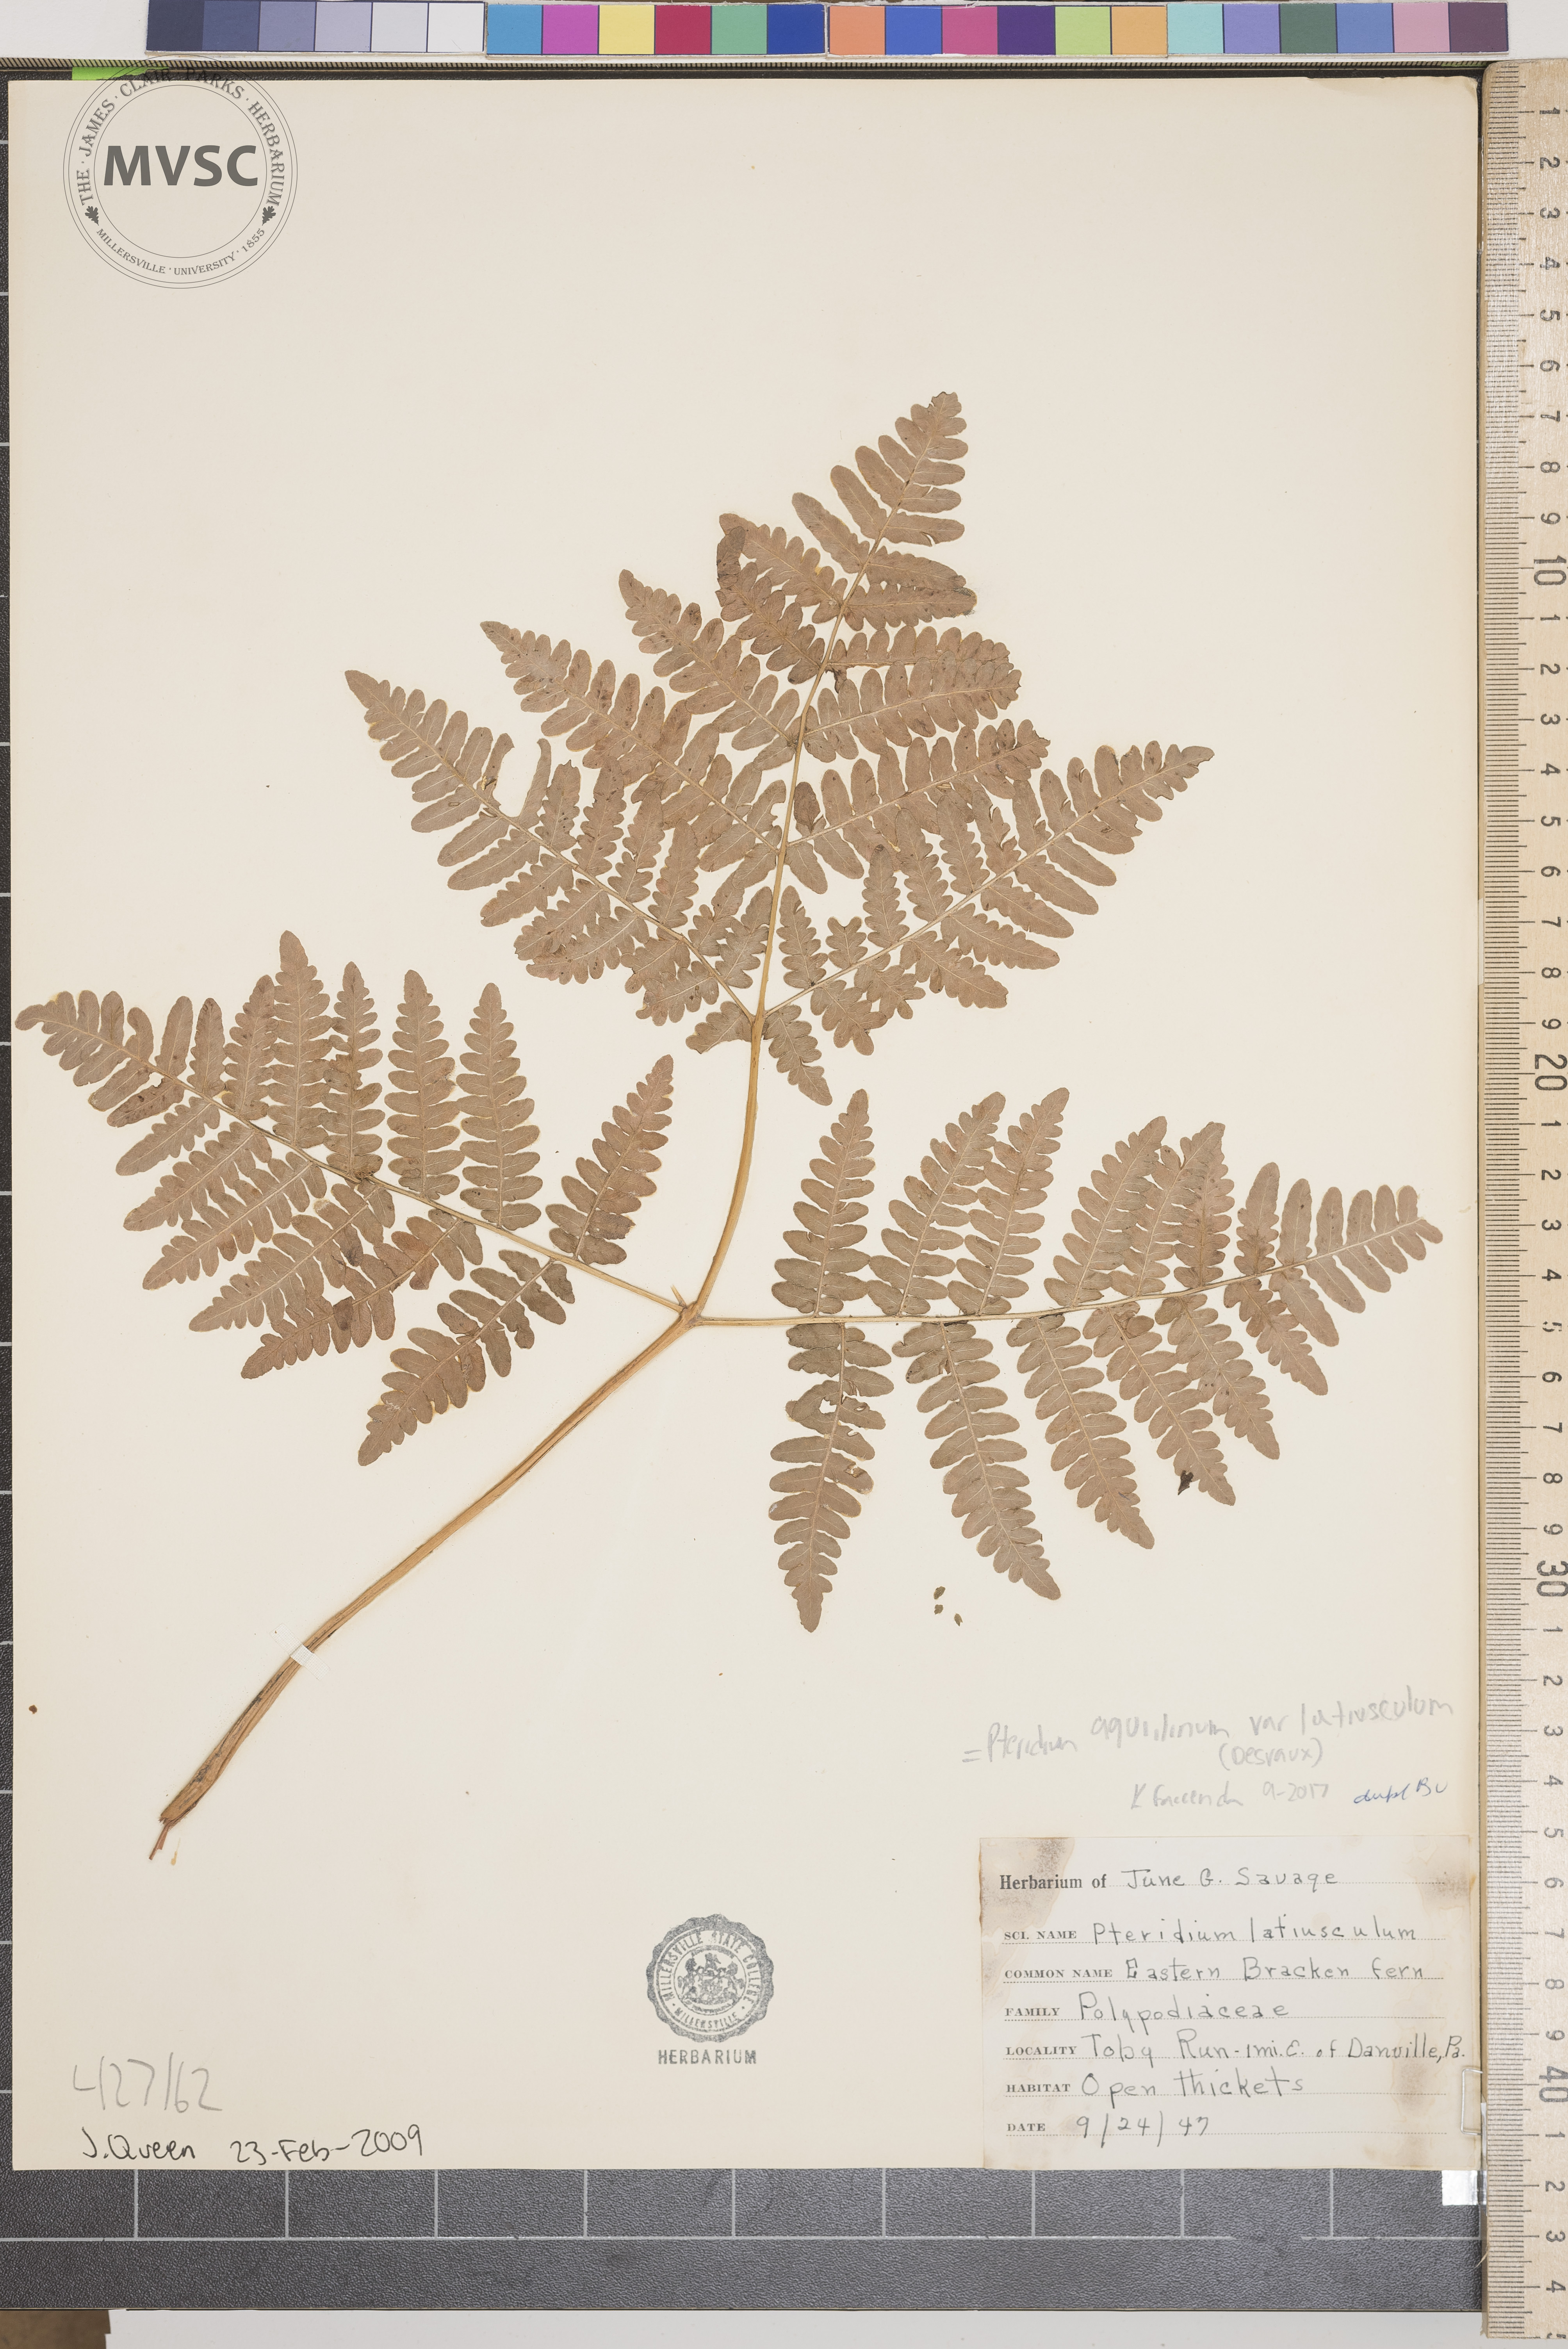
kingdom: Plantae
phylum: Tracheophyta
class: Polypodiopsida
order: Polypodiales
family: Dennstaedtiaceae
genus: Pteridium
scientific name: Pteridium aquilinum
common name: Bracken
